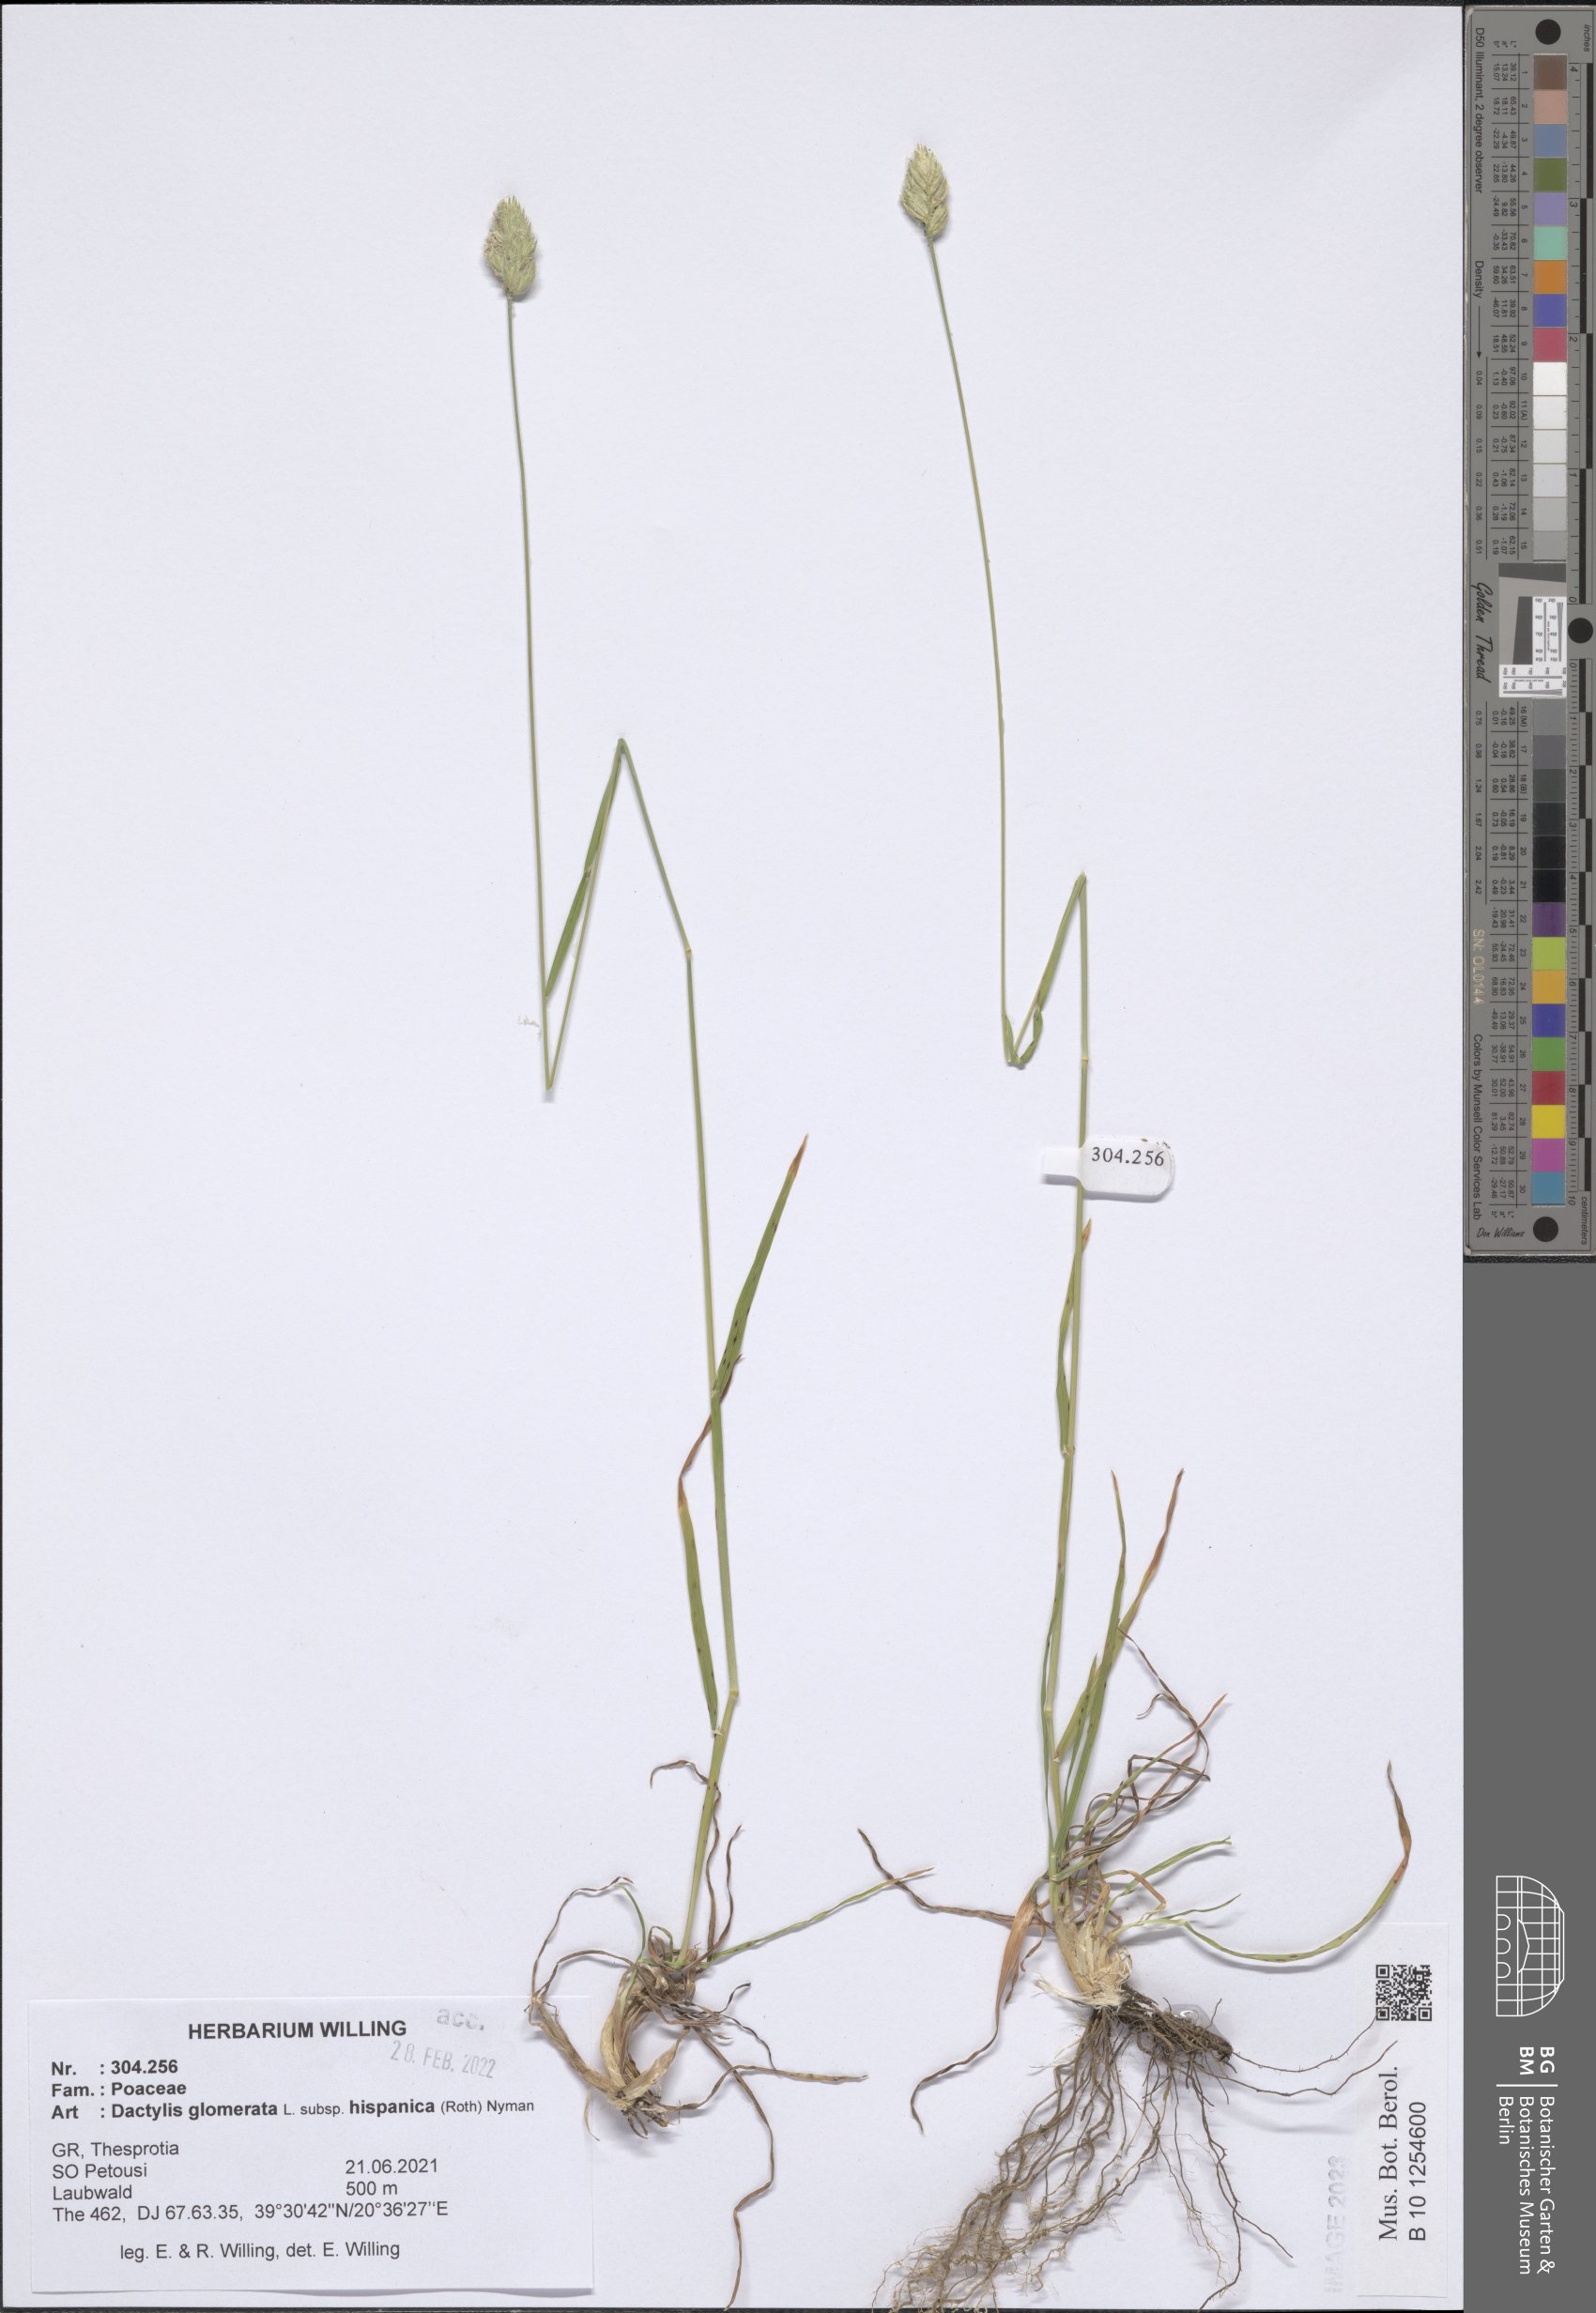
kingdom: Plantae
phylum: Tracheophyta
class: Liliopsida
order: Poales
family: Poaceae
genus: Dactylis
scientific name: Dactylis glomerata
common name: Orchardgrass
